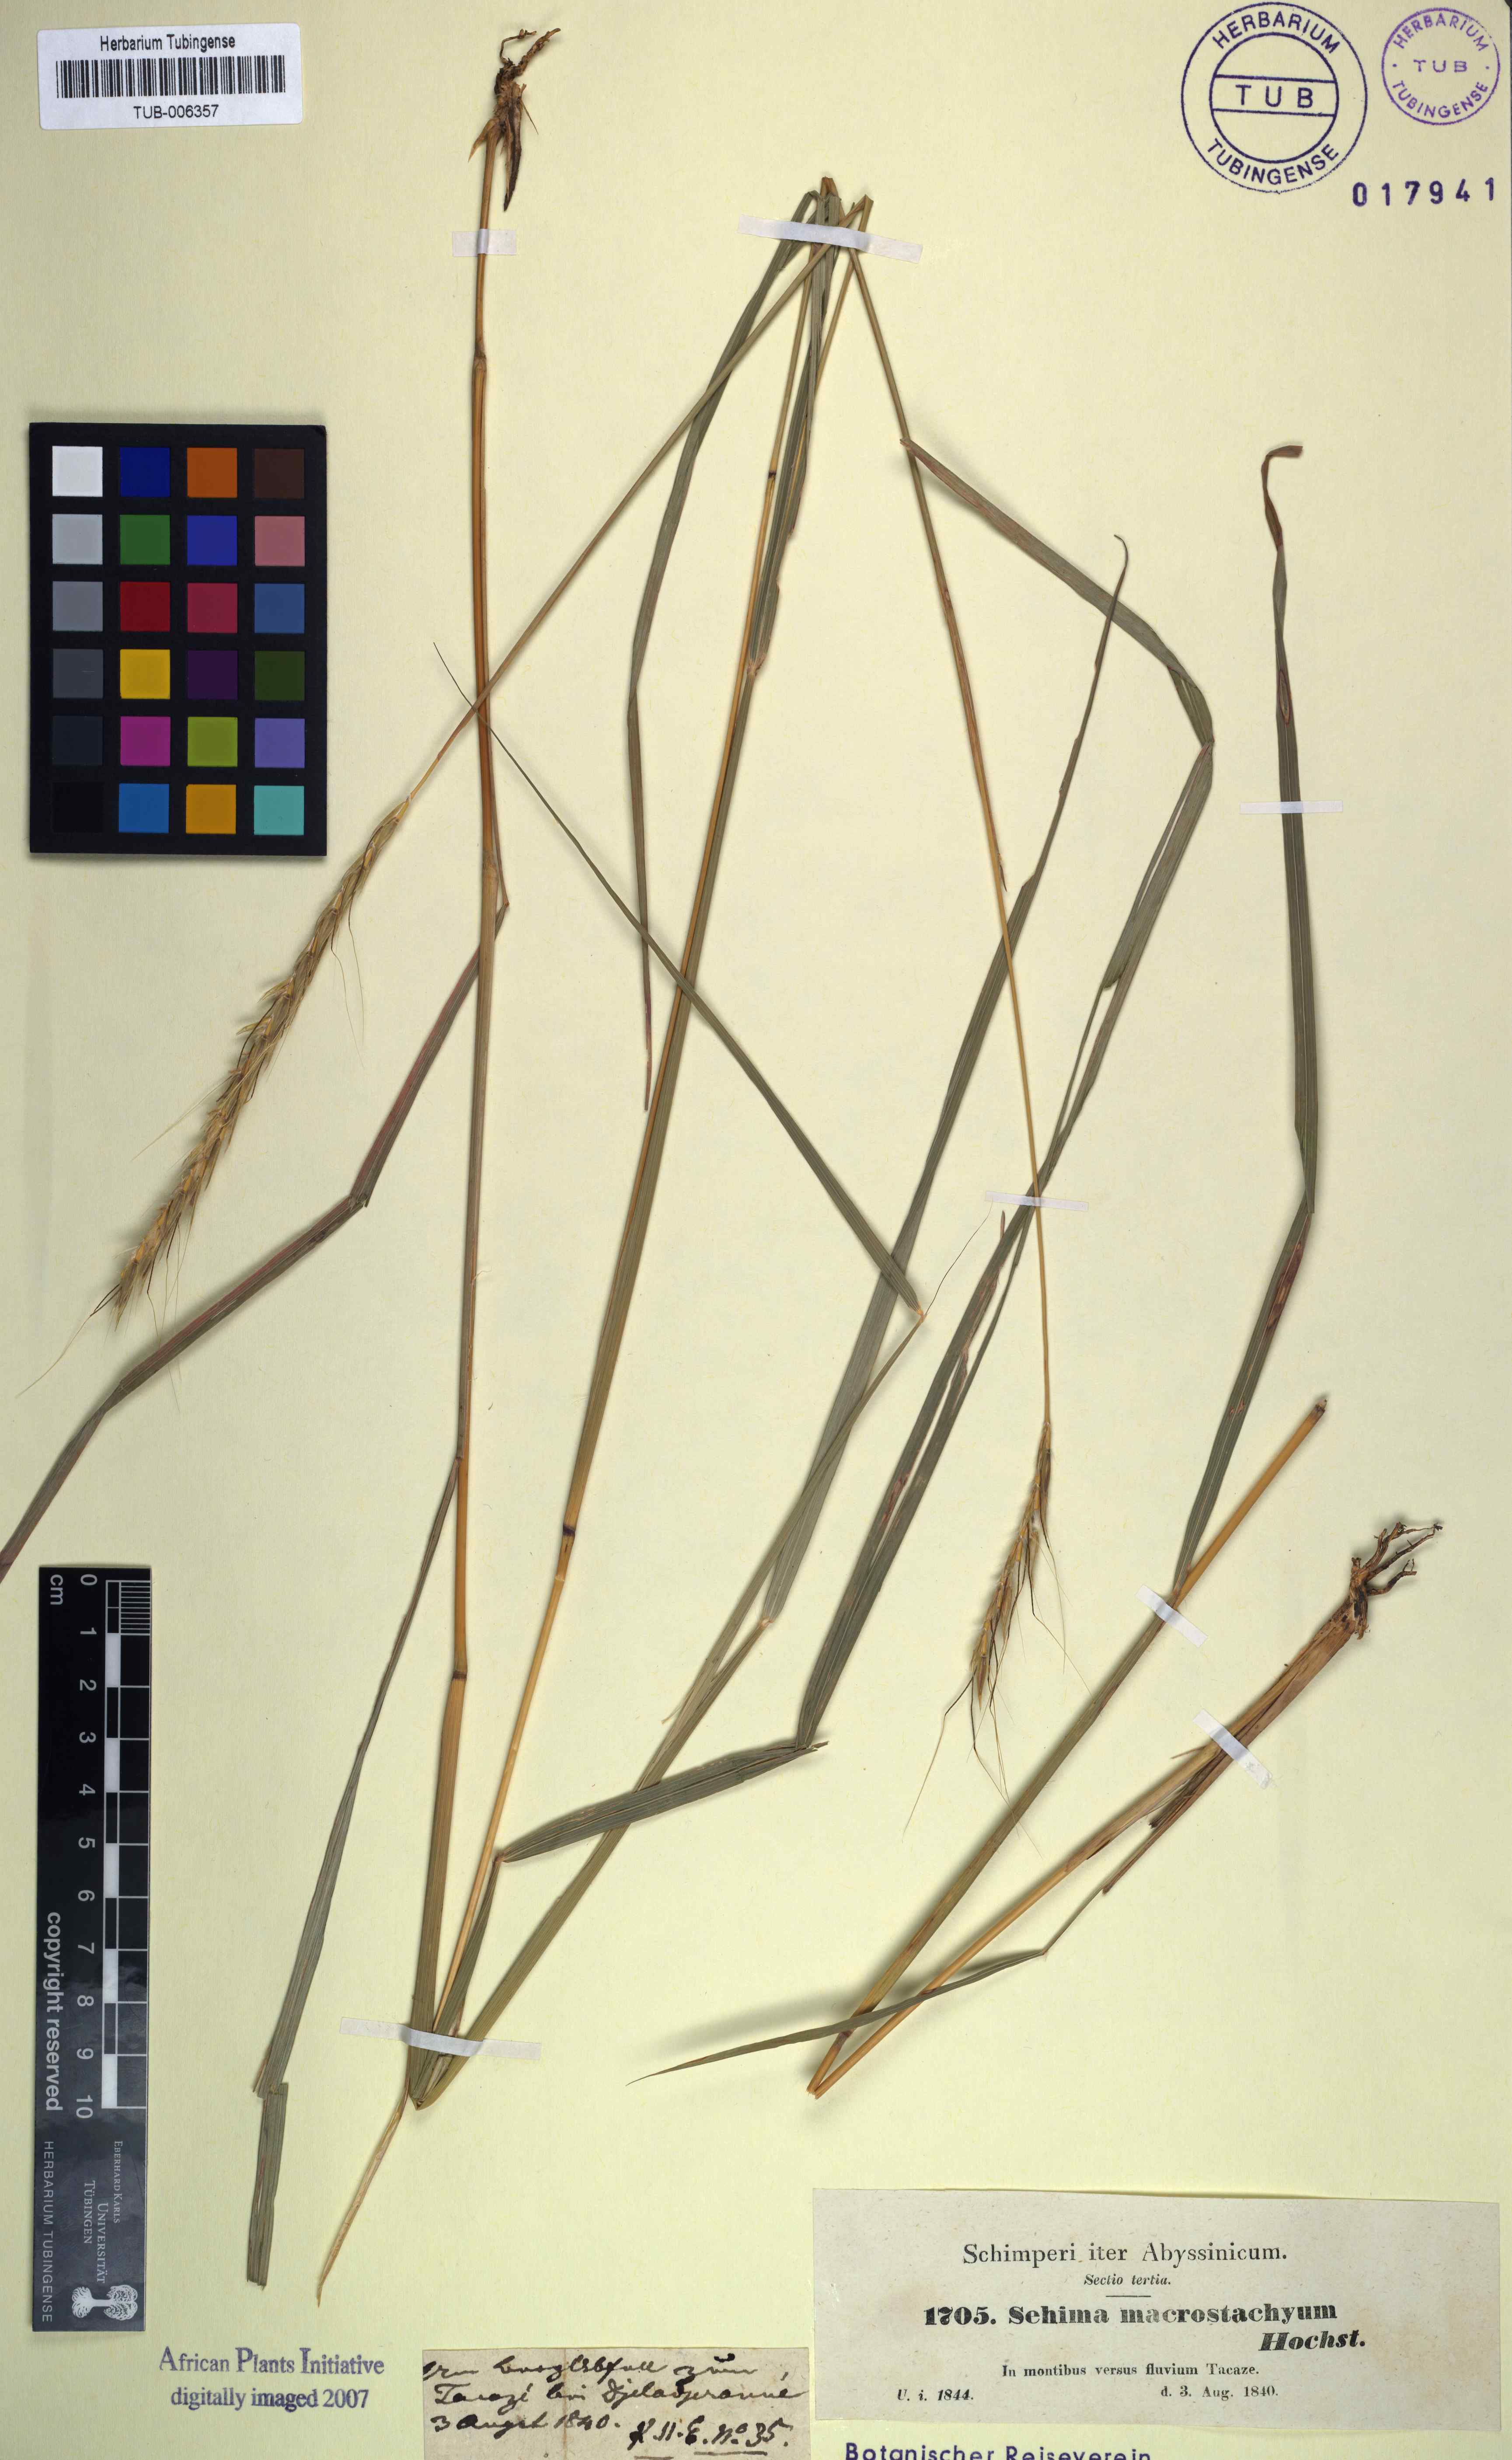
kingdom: Plantae
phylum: Tracheophyta
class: Liliopsida
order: Poales
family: Poaceae
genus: Sehima
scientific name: Sehima nervosa
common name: Rat-tail grass
